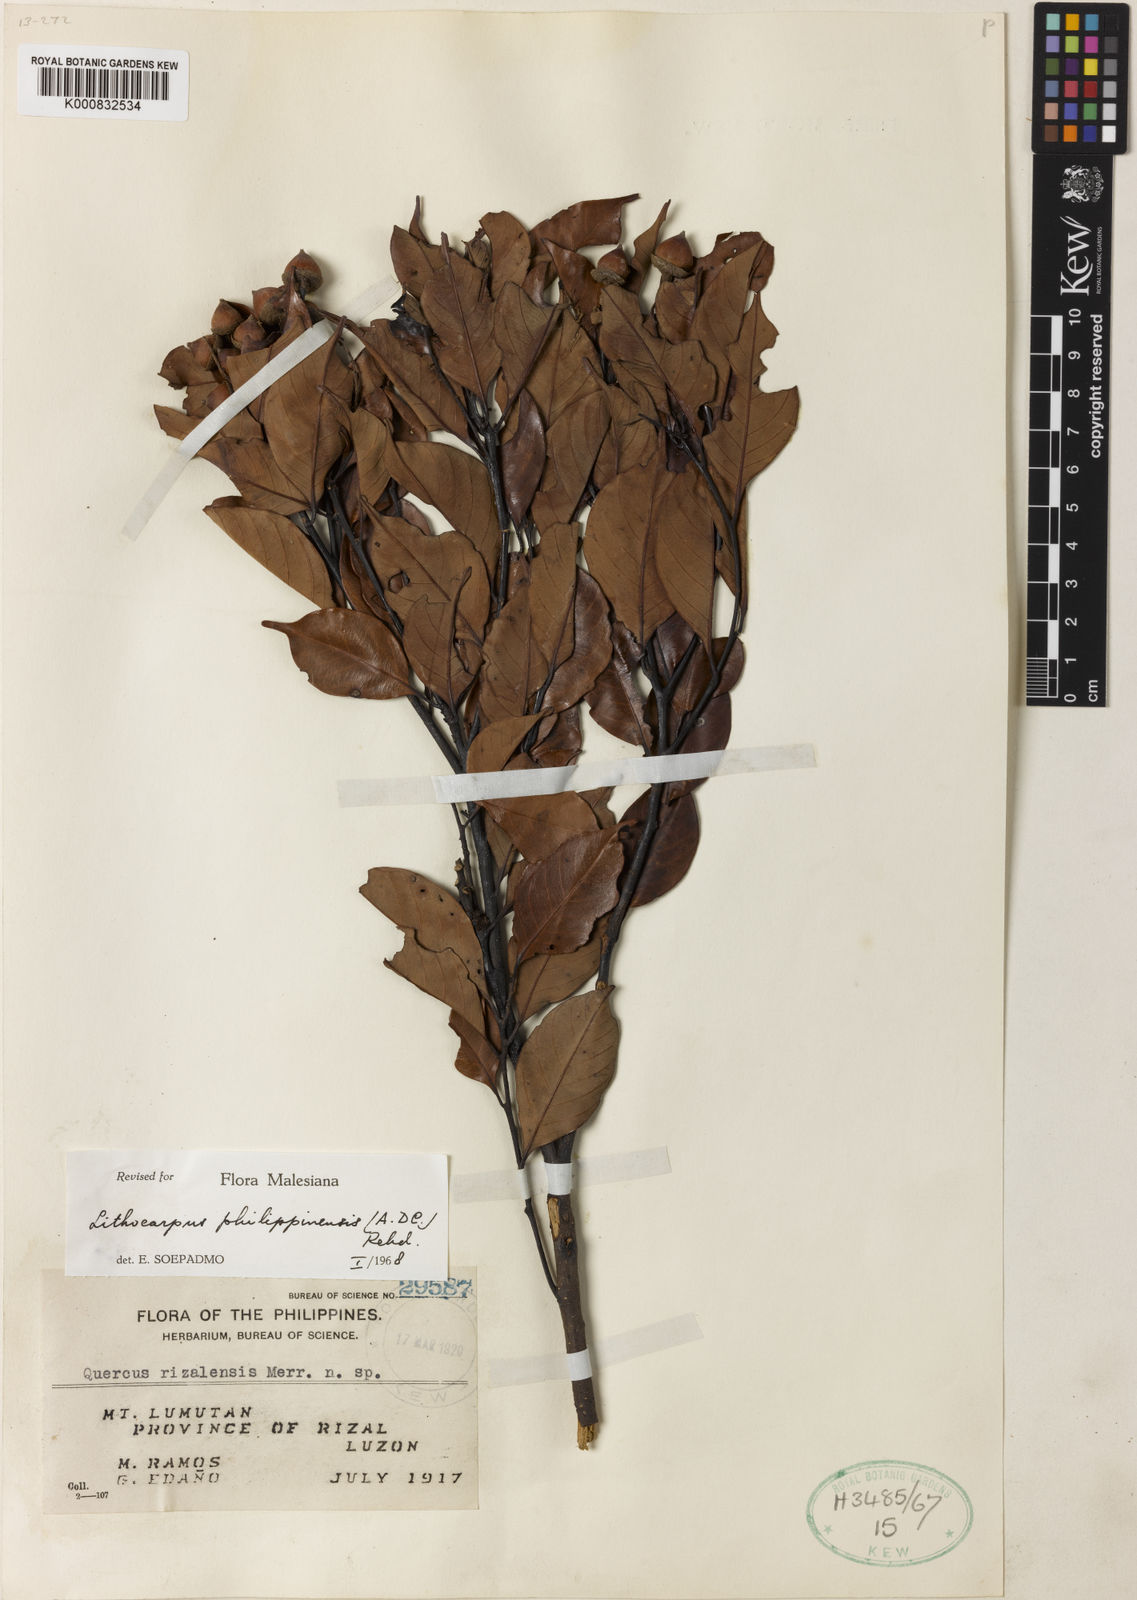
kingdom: Plantae
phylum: Tracheophyta
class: Magnoliopsida
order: Fagales
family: Fagaceae
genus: Lithocarpus
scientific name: Lithocarpus philippinensis
